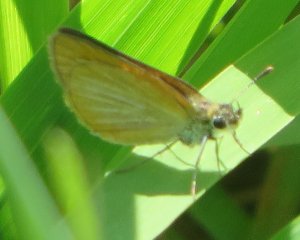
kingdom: Animalia
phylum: Arthropoda
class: Insecta
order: Lepidoptera
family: Hesperiidae
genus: Ancyloxypha
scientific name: Ancyloxypha numitor
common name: Least Skipper
